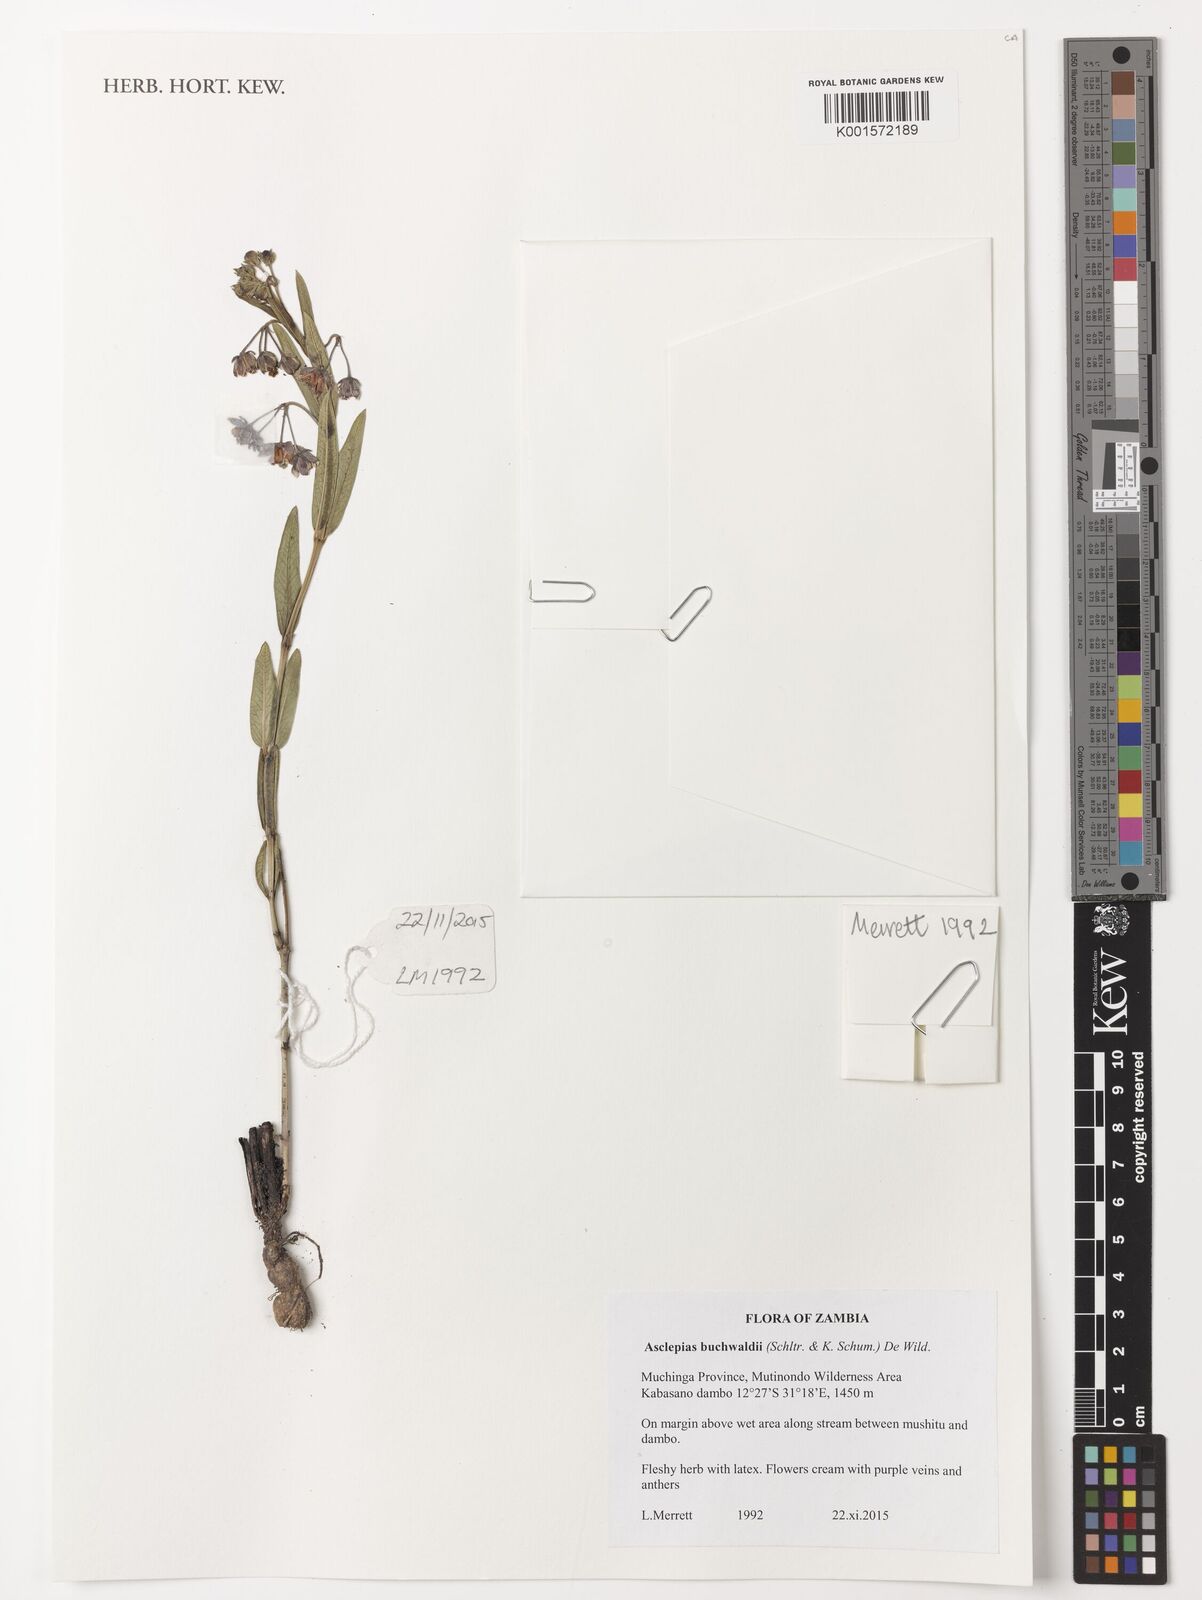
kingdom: Plantae
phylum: Tracheophyta
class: Magnoliopsida
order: Gentianales
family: Apocynaceae
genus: Asclepias
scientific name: Asclepias buchwaldii
